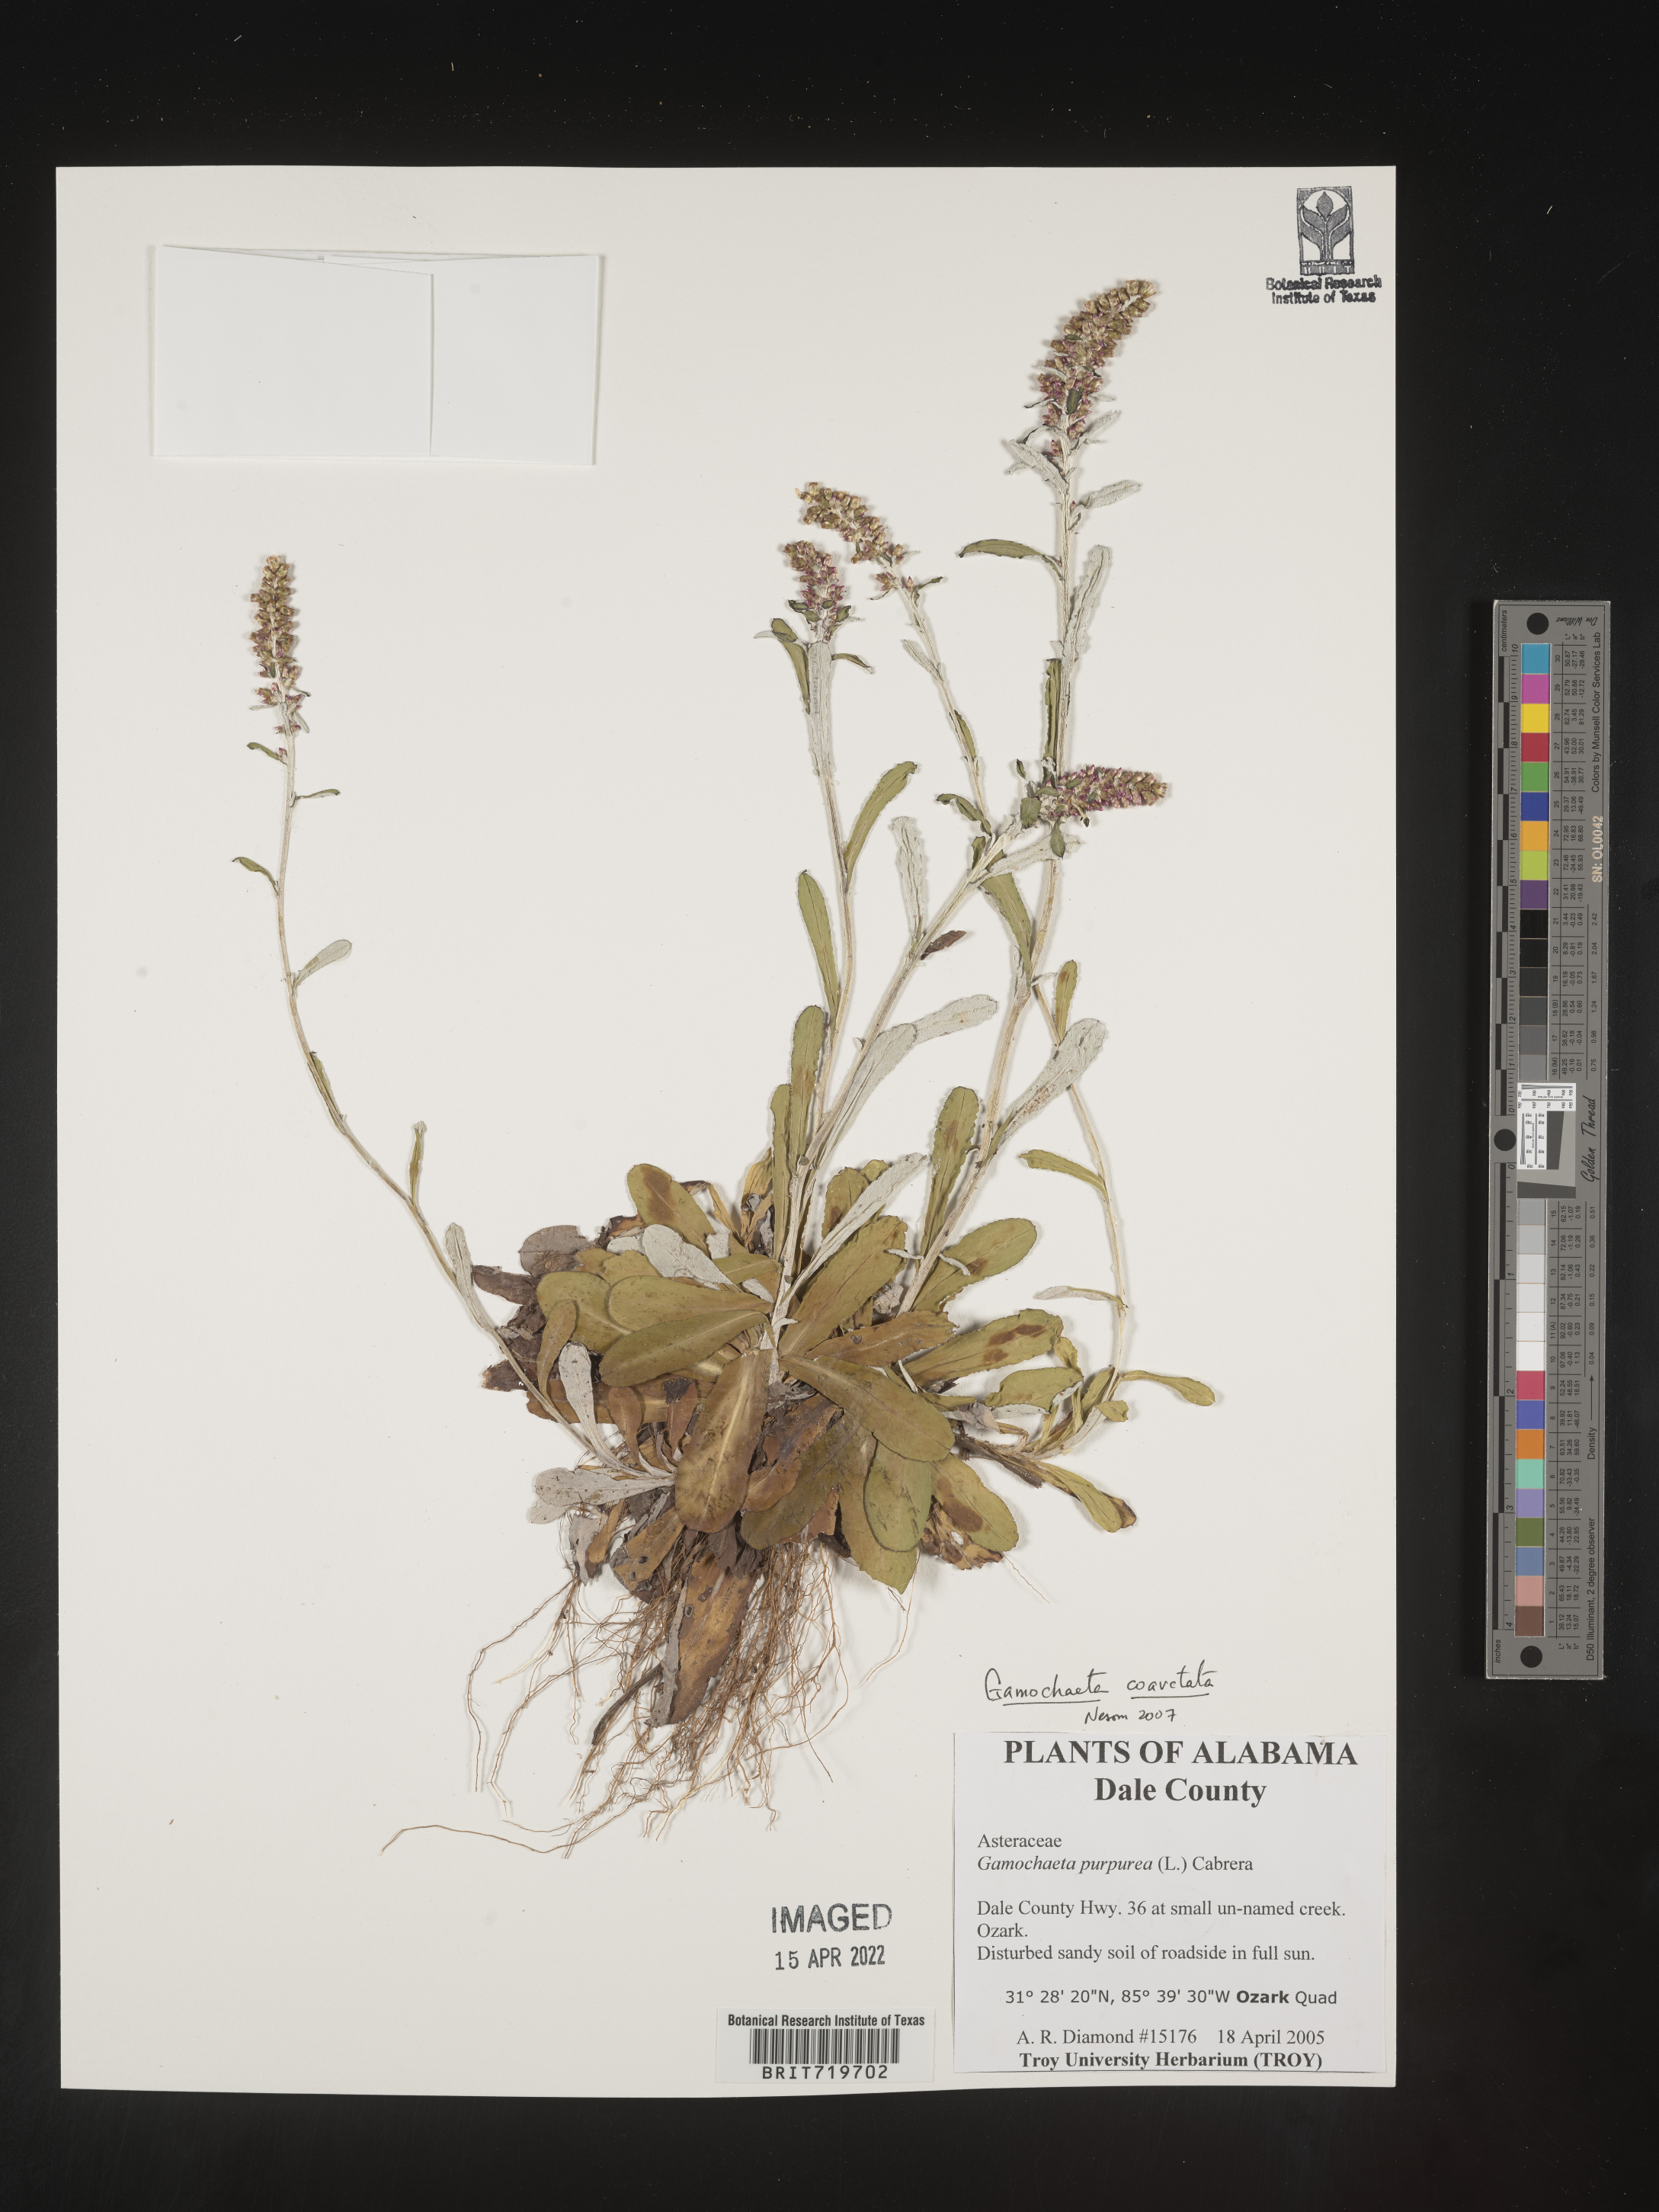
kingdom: Plantae
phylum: Tracheophyta
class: Magnoliopsida
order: Asterales
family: Asteraceae
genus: Gamochaeta
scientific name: Gamochaeta americana
